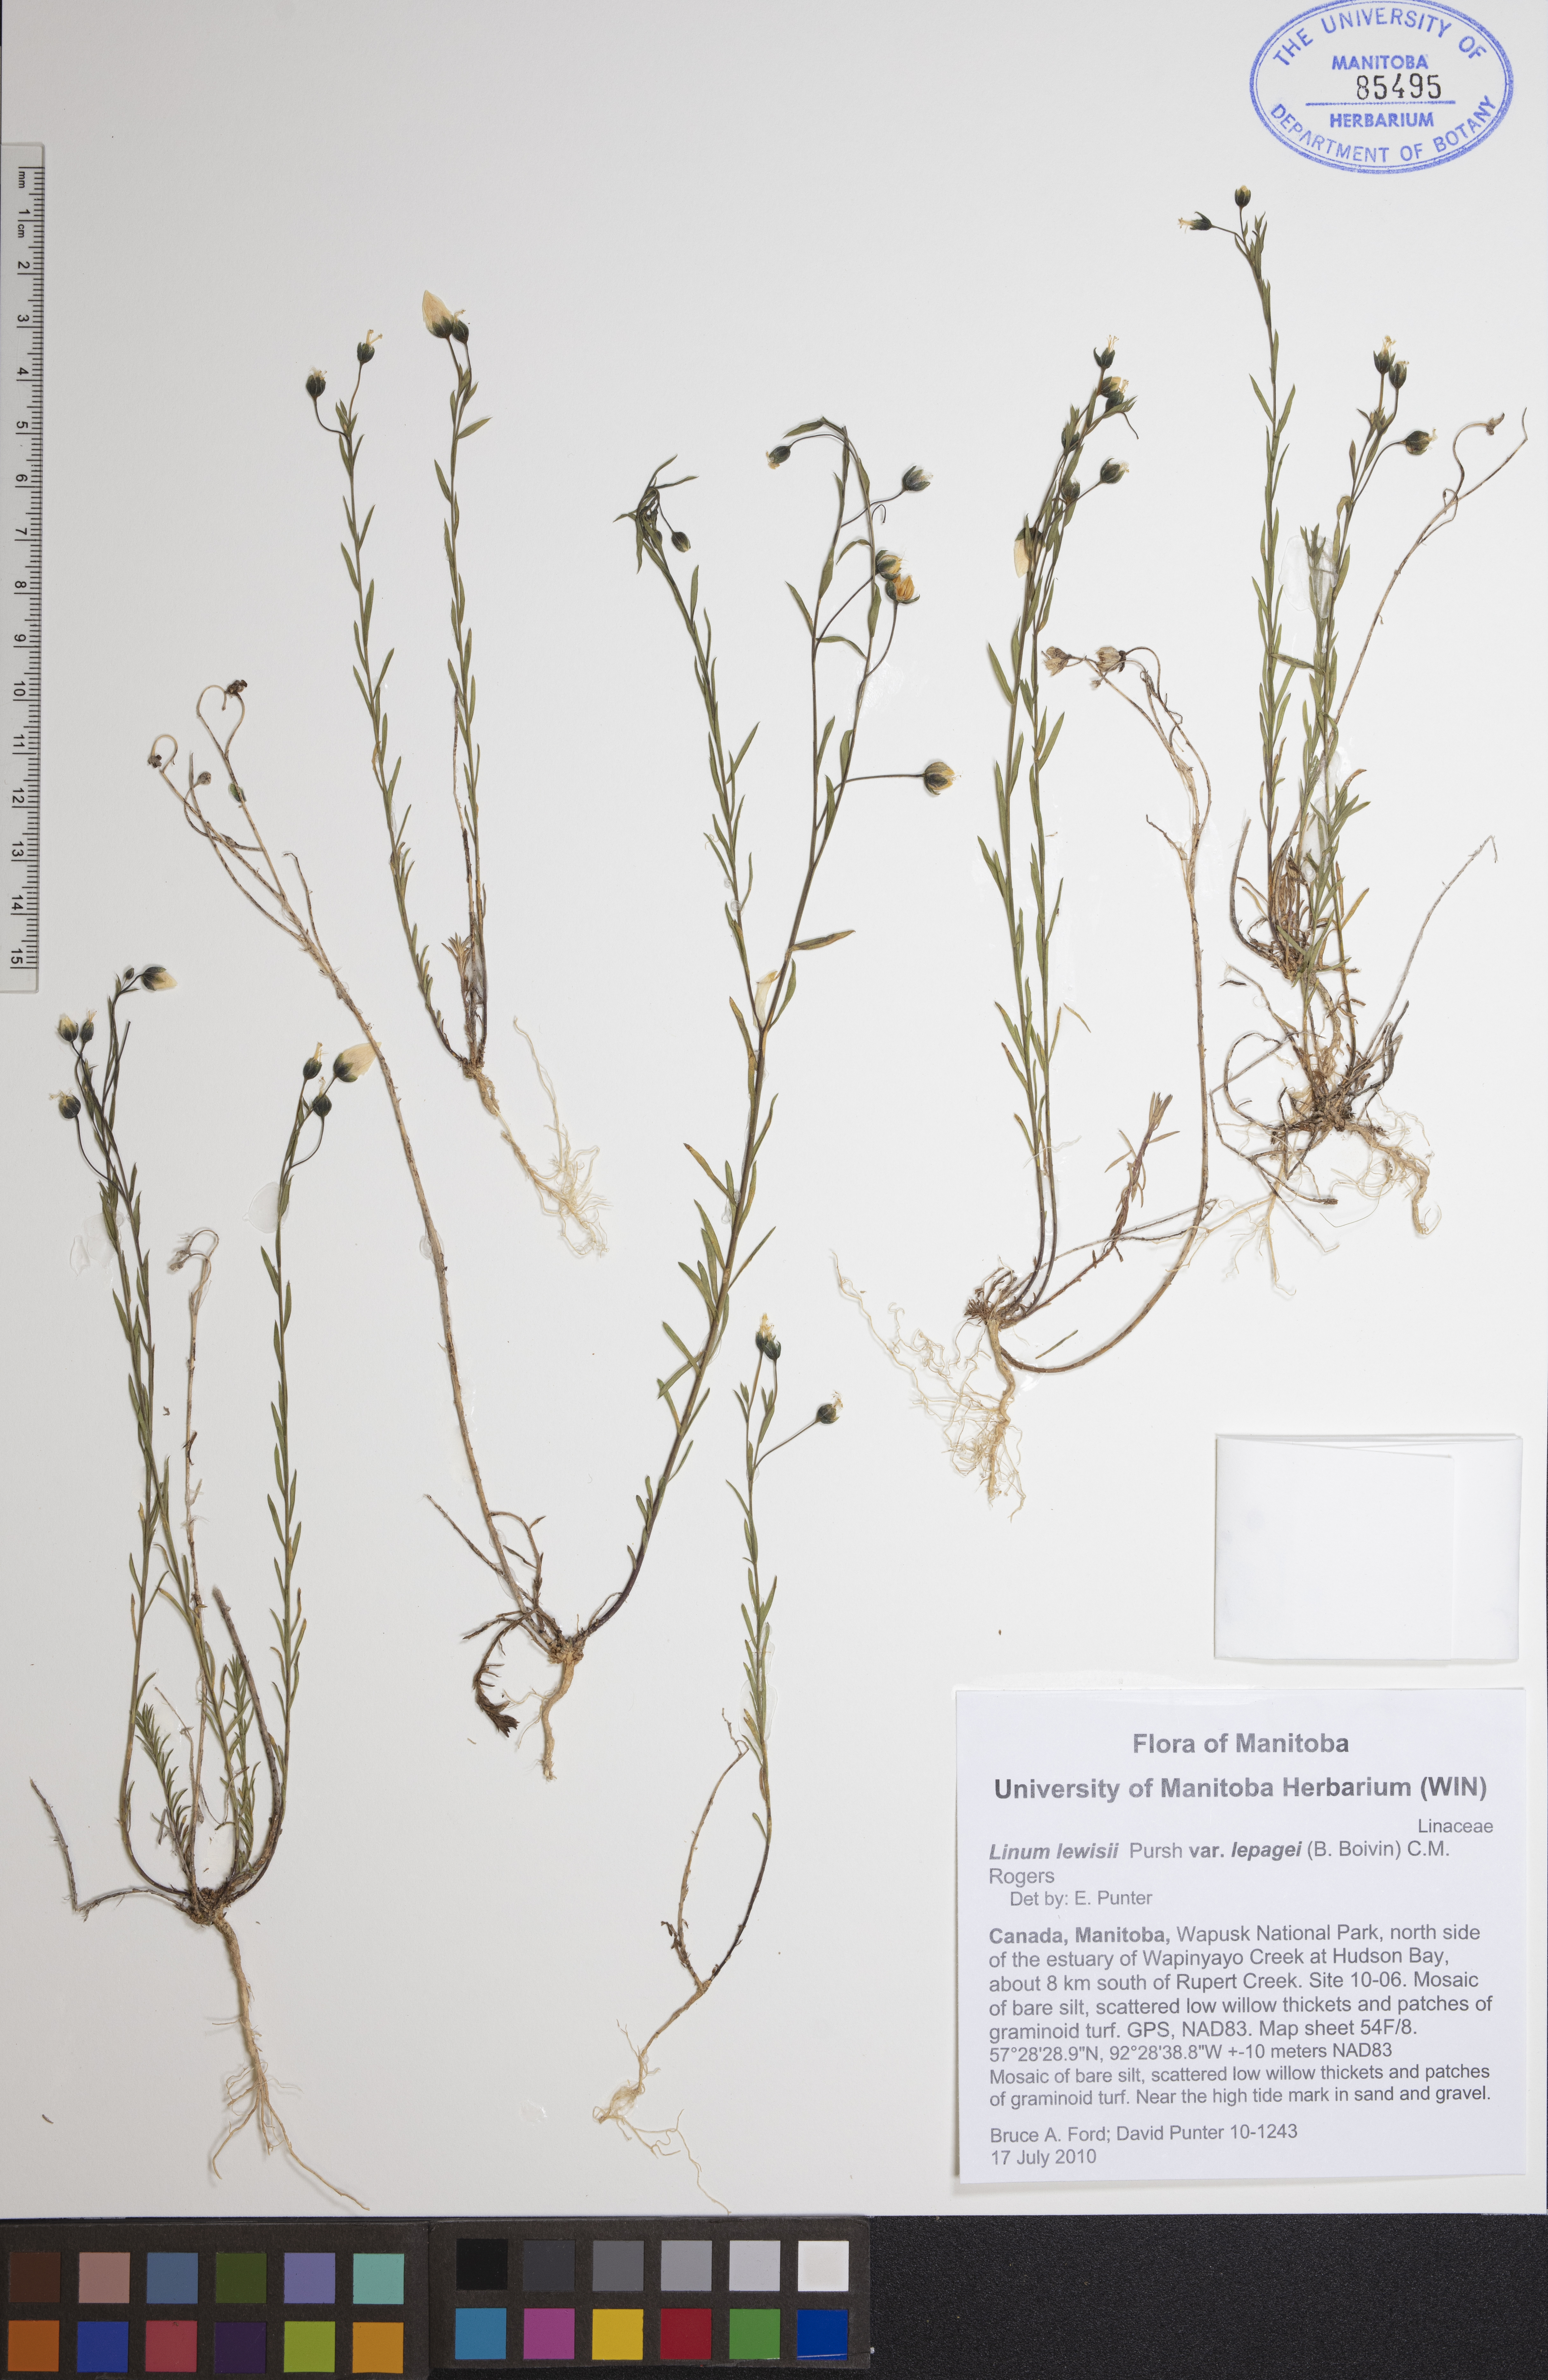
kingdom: Plantae
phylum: Tracheophyta
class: Magnoliopsida
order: Malpighiales
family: Linaceae
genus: Linum
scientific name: Linum lewisii
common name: Prairie flax
